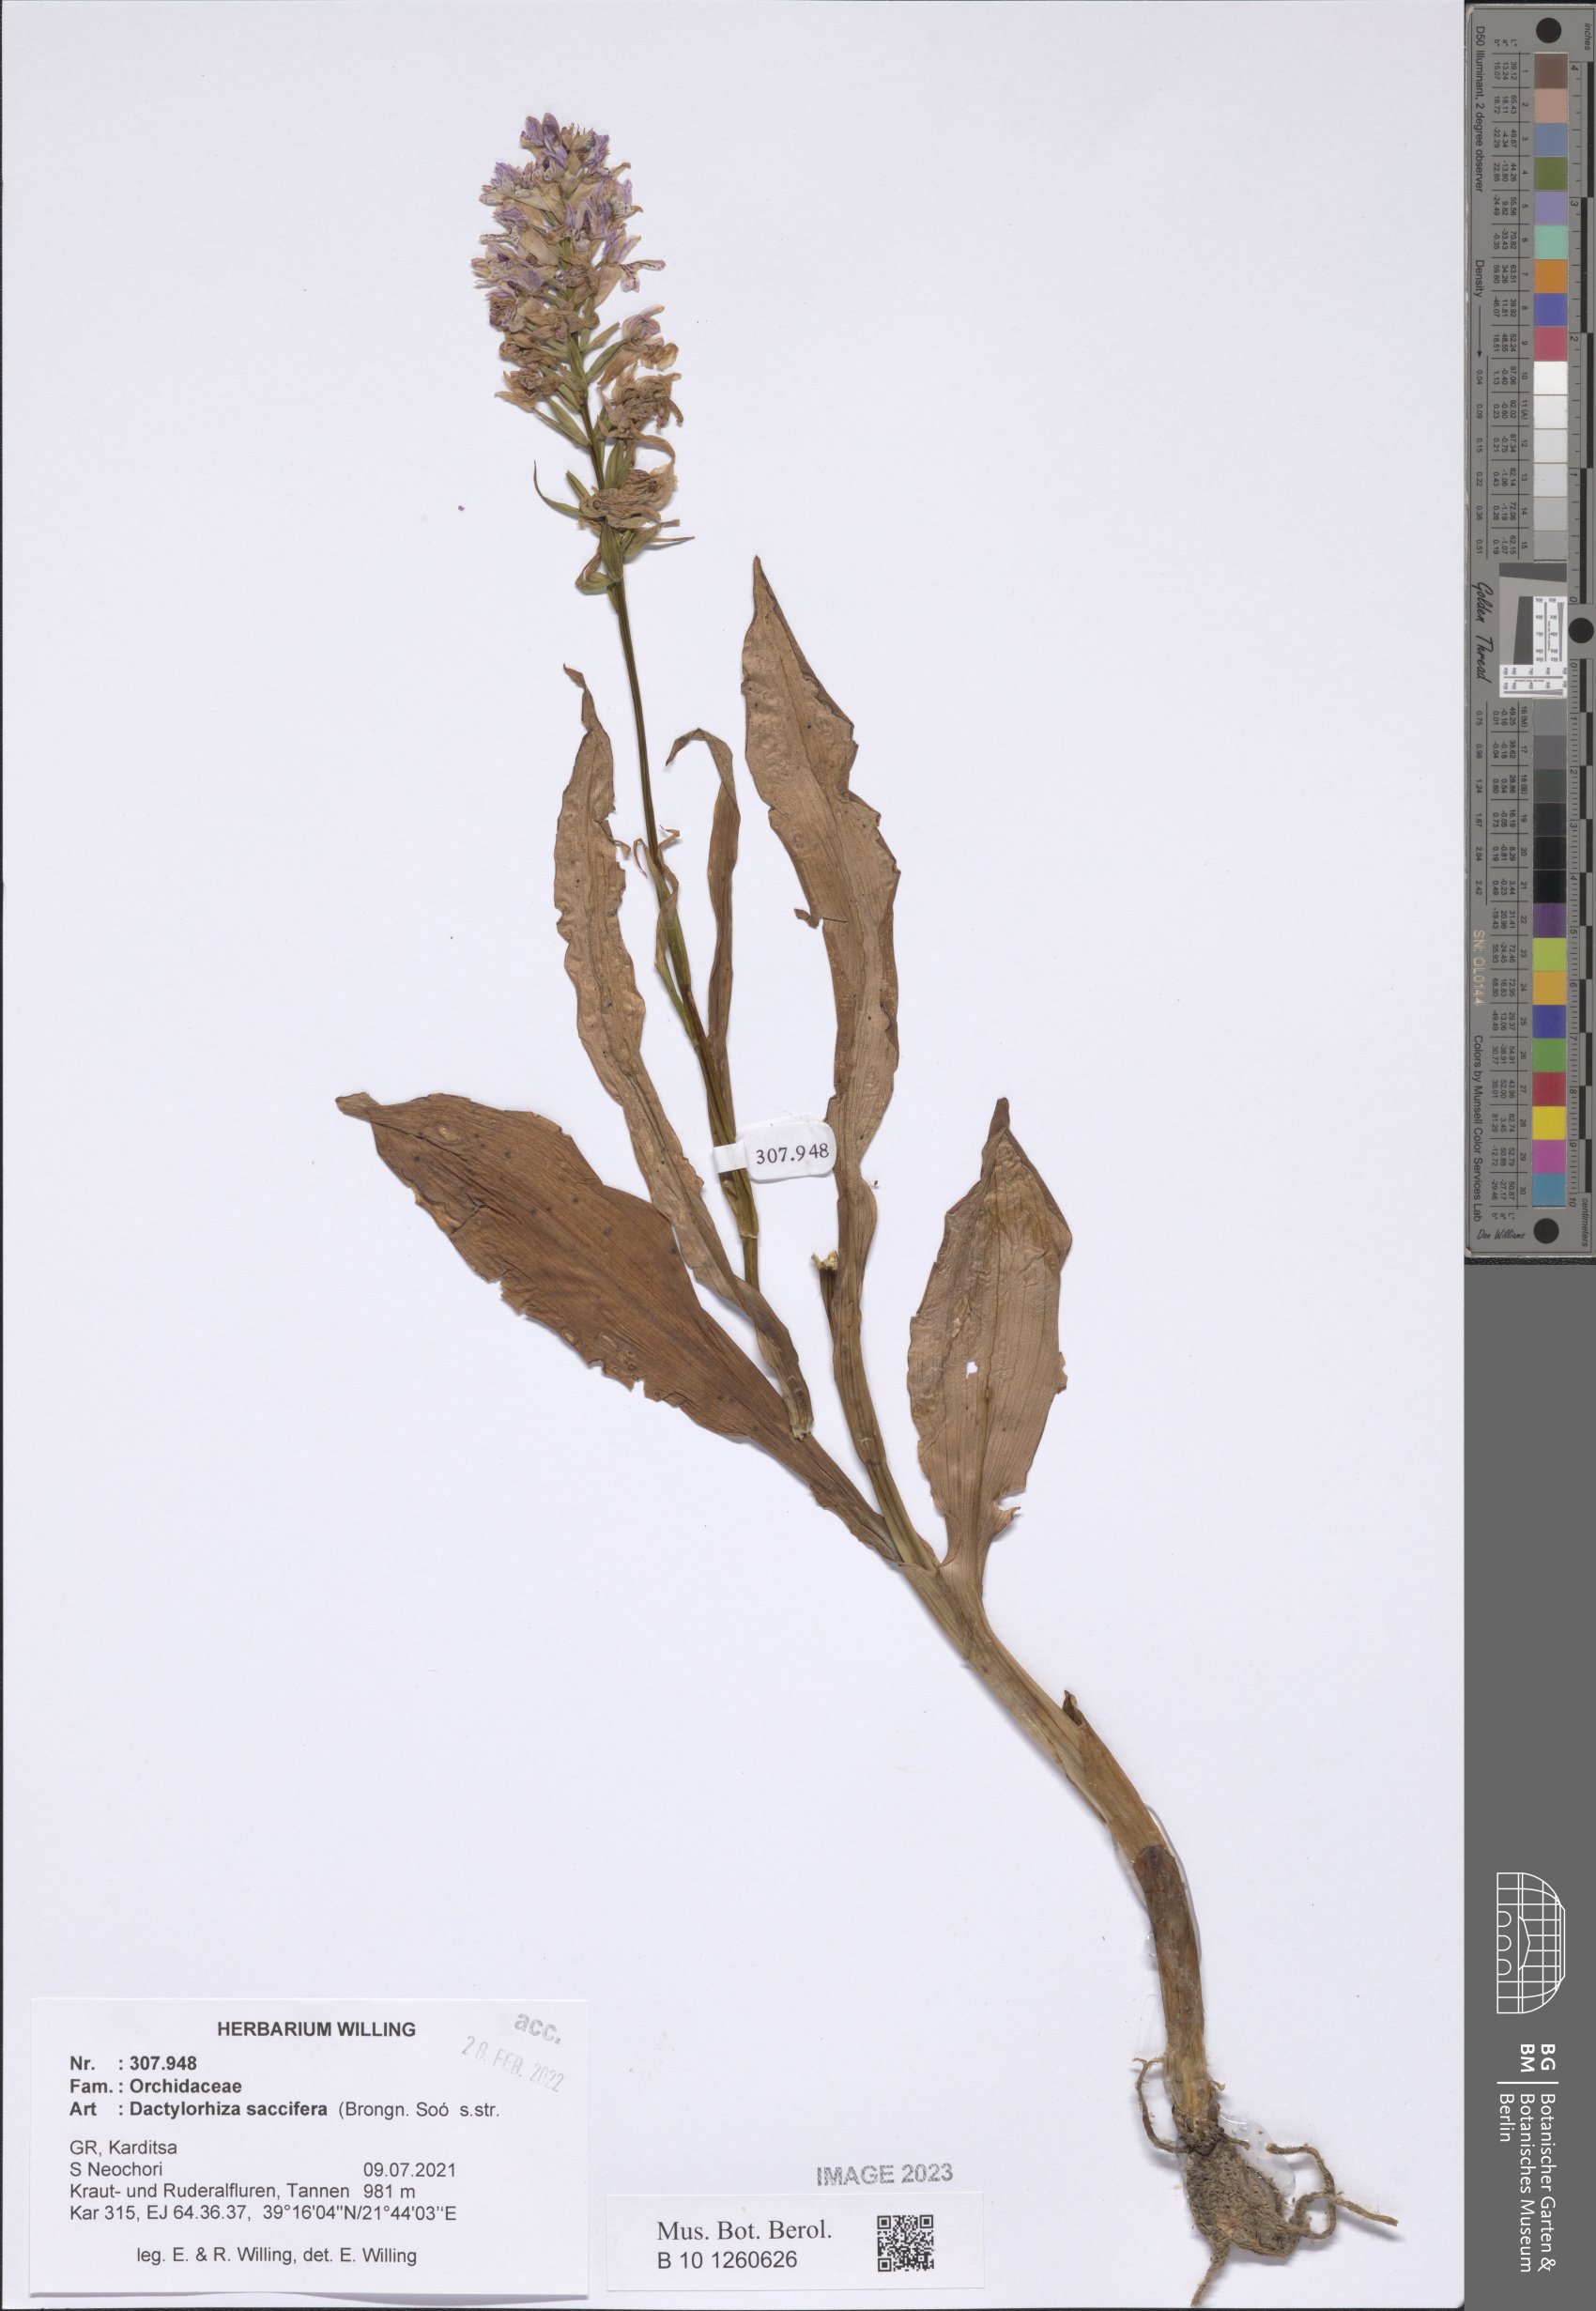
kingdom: Plantae
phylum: Tracheophyta
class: Liliopsida
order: Asparagales
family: Orchidaceae
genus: Dactylorhiza
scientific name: Dactylorhiza maculata
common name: Heath spotted-orchid
